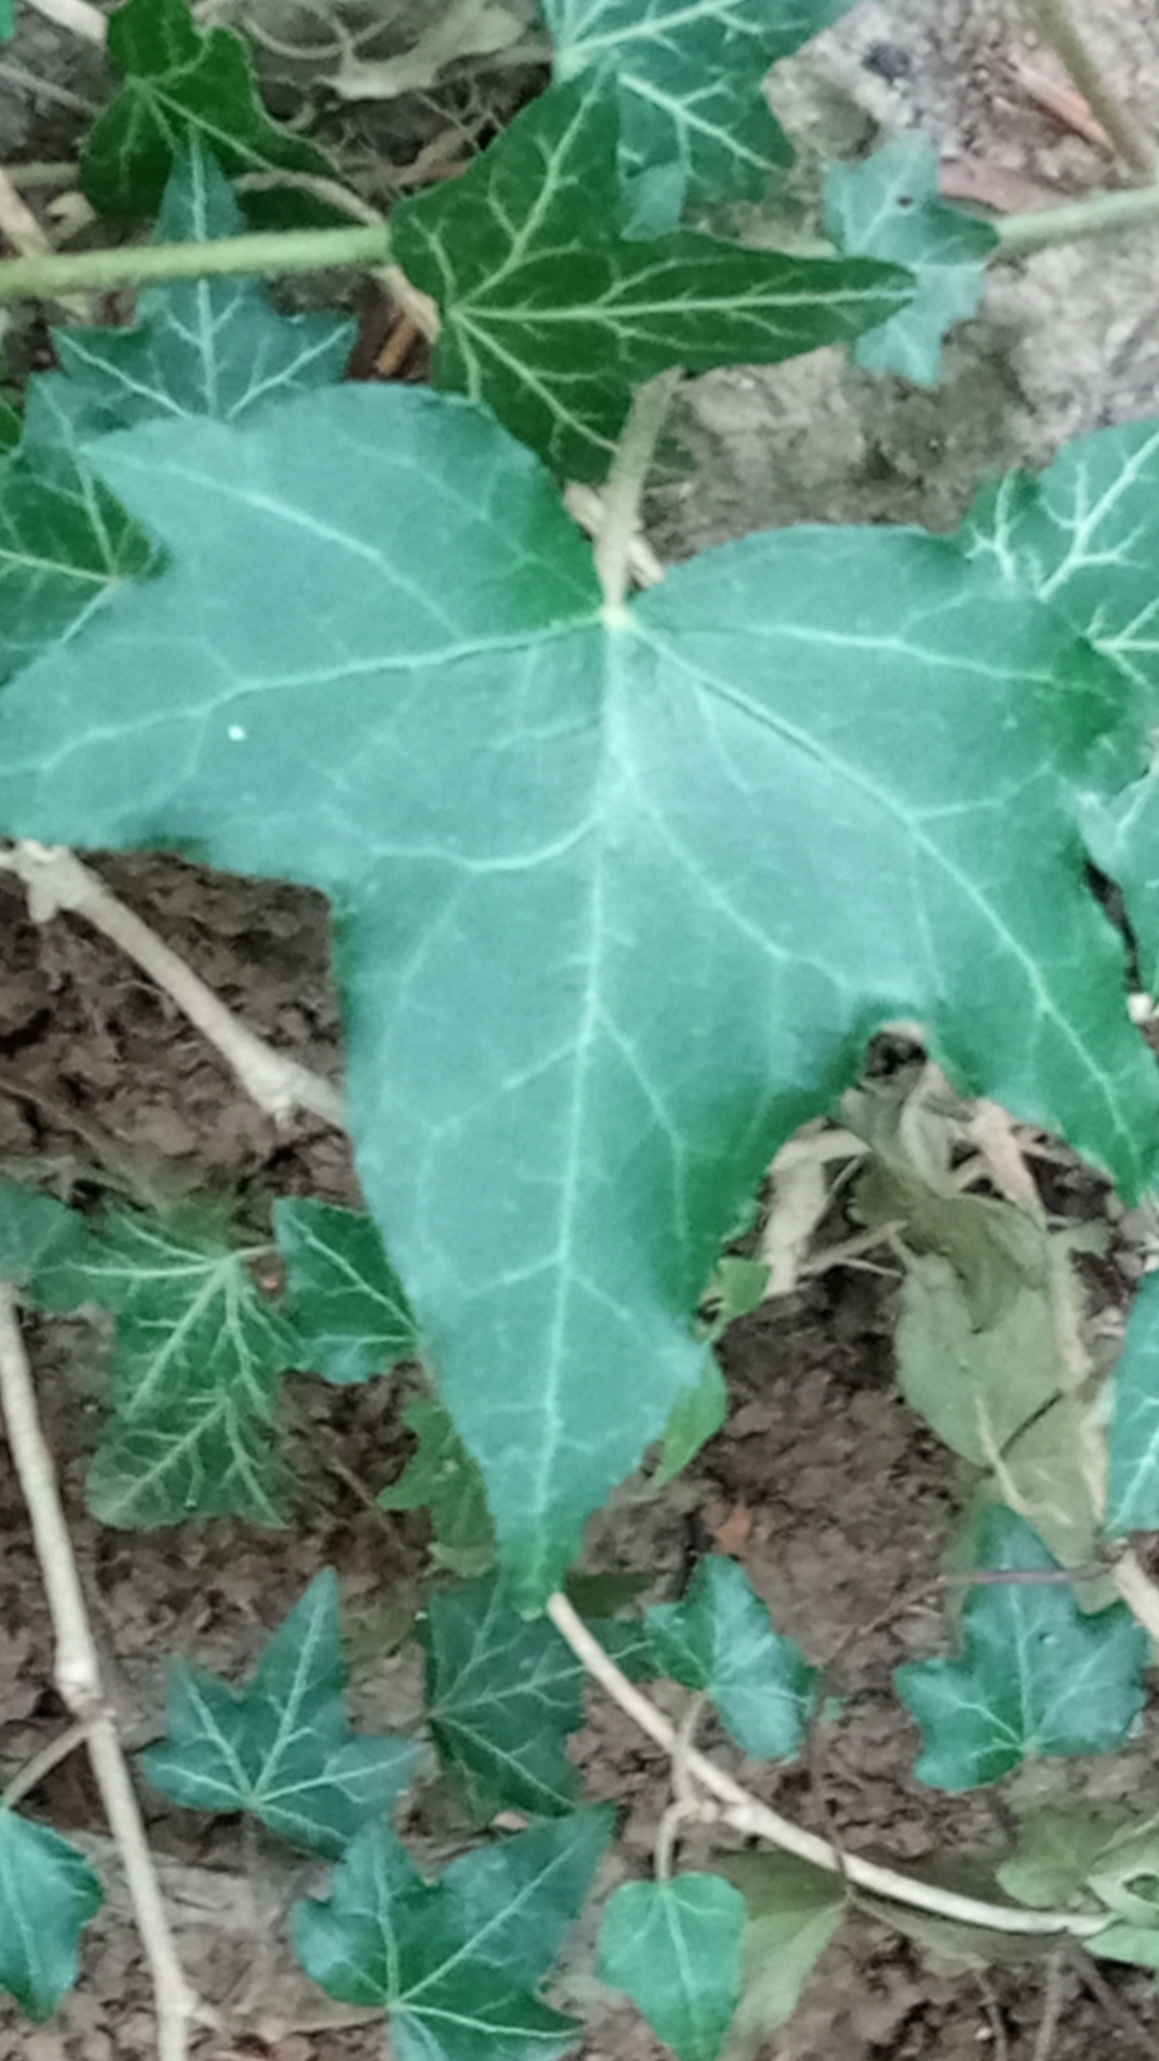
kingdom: Plantae
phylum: Tracheophyta
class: Magnoliopsida
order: Apiales
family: Araliaceae
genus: Hedera
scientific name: Hedera helix
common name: Vedbend
